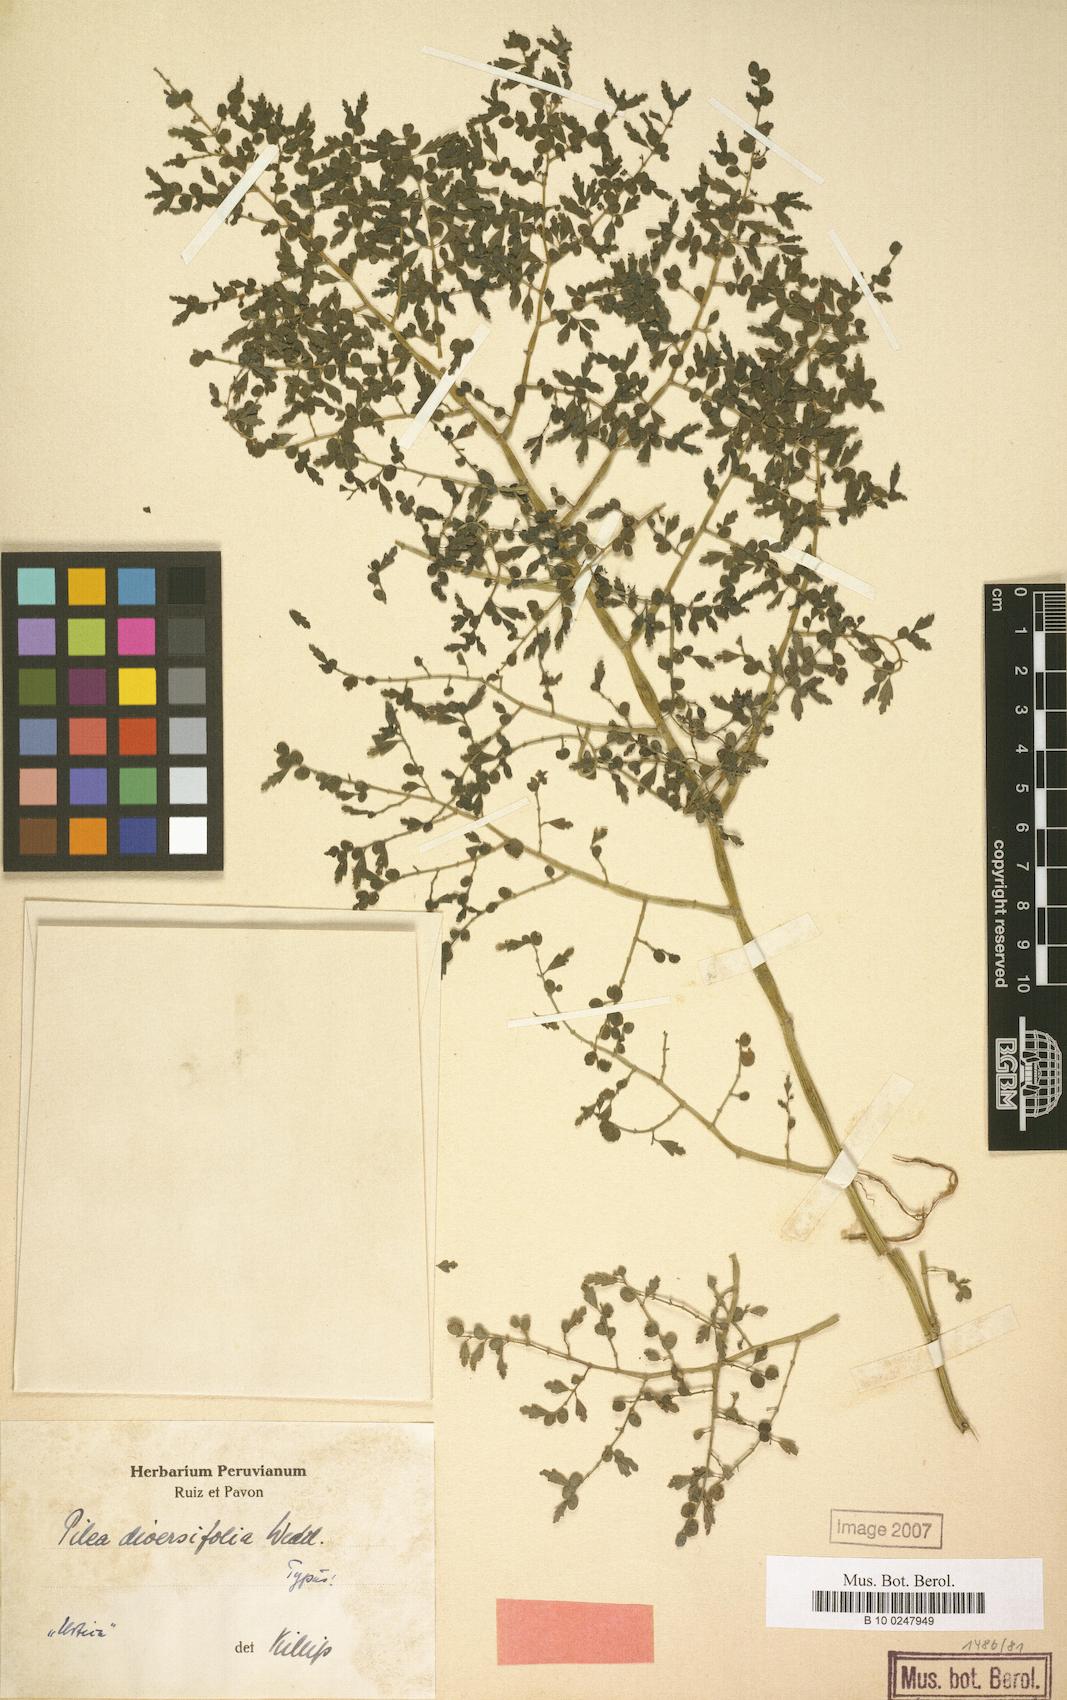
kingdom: Plantae
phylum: Tracheophyta
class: Magnoliopsida
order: Rosales
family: Urticaceae
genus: Pilea
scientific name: Pilea diversifolia
